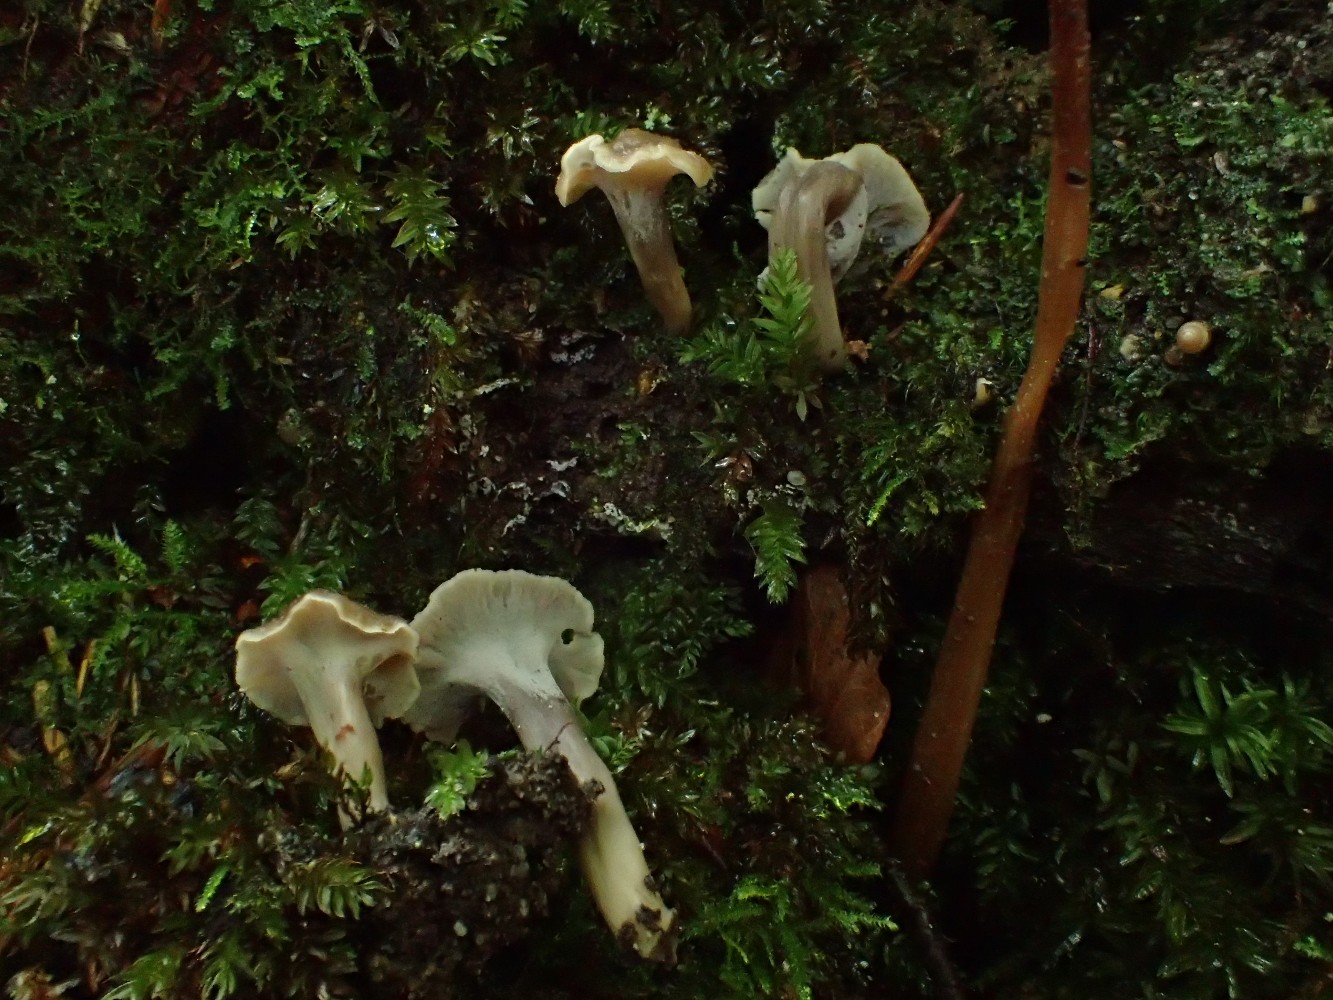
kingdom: Fungi
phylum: Basidiomycota
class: Agaricomycetes
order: Cantharellales
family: Hydnaceae
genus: Craterellus
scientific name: Craterellus undulatus
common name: liden kantarel
